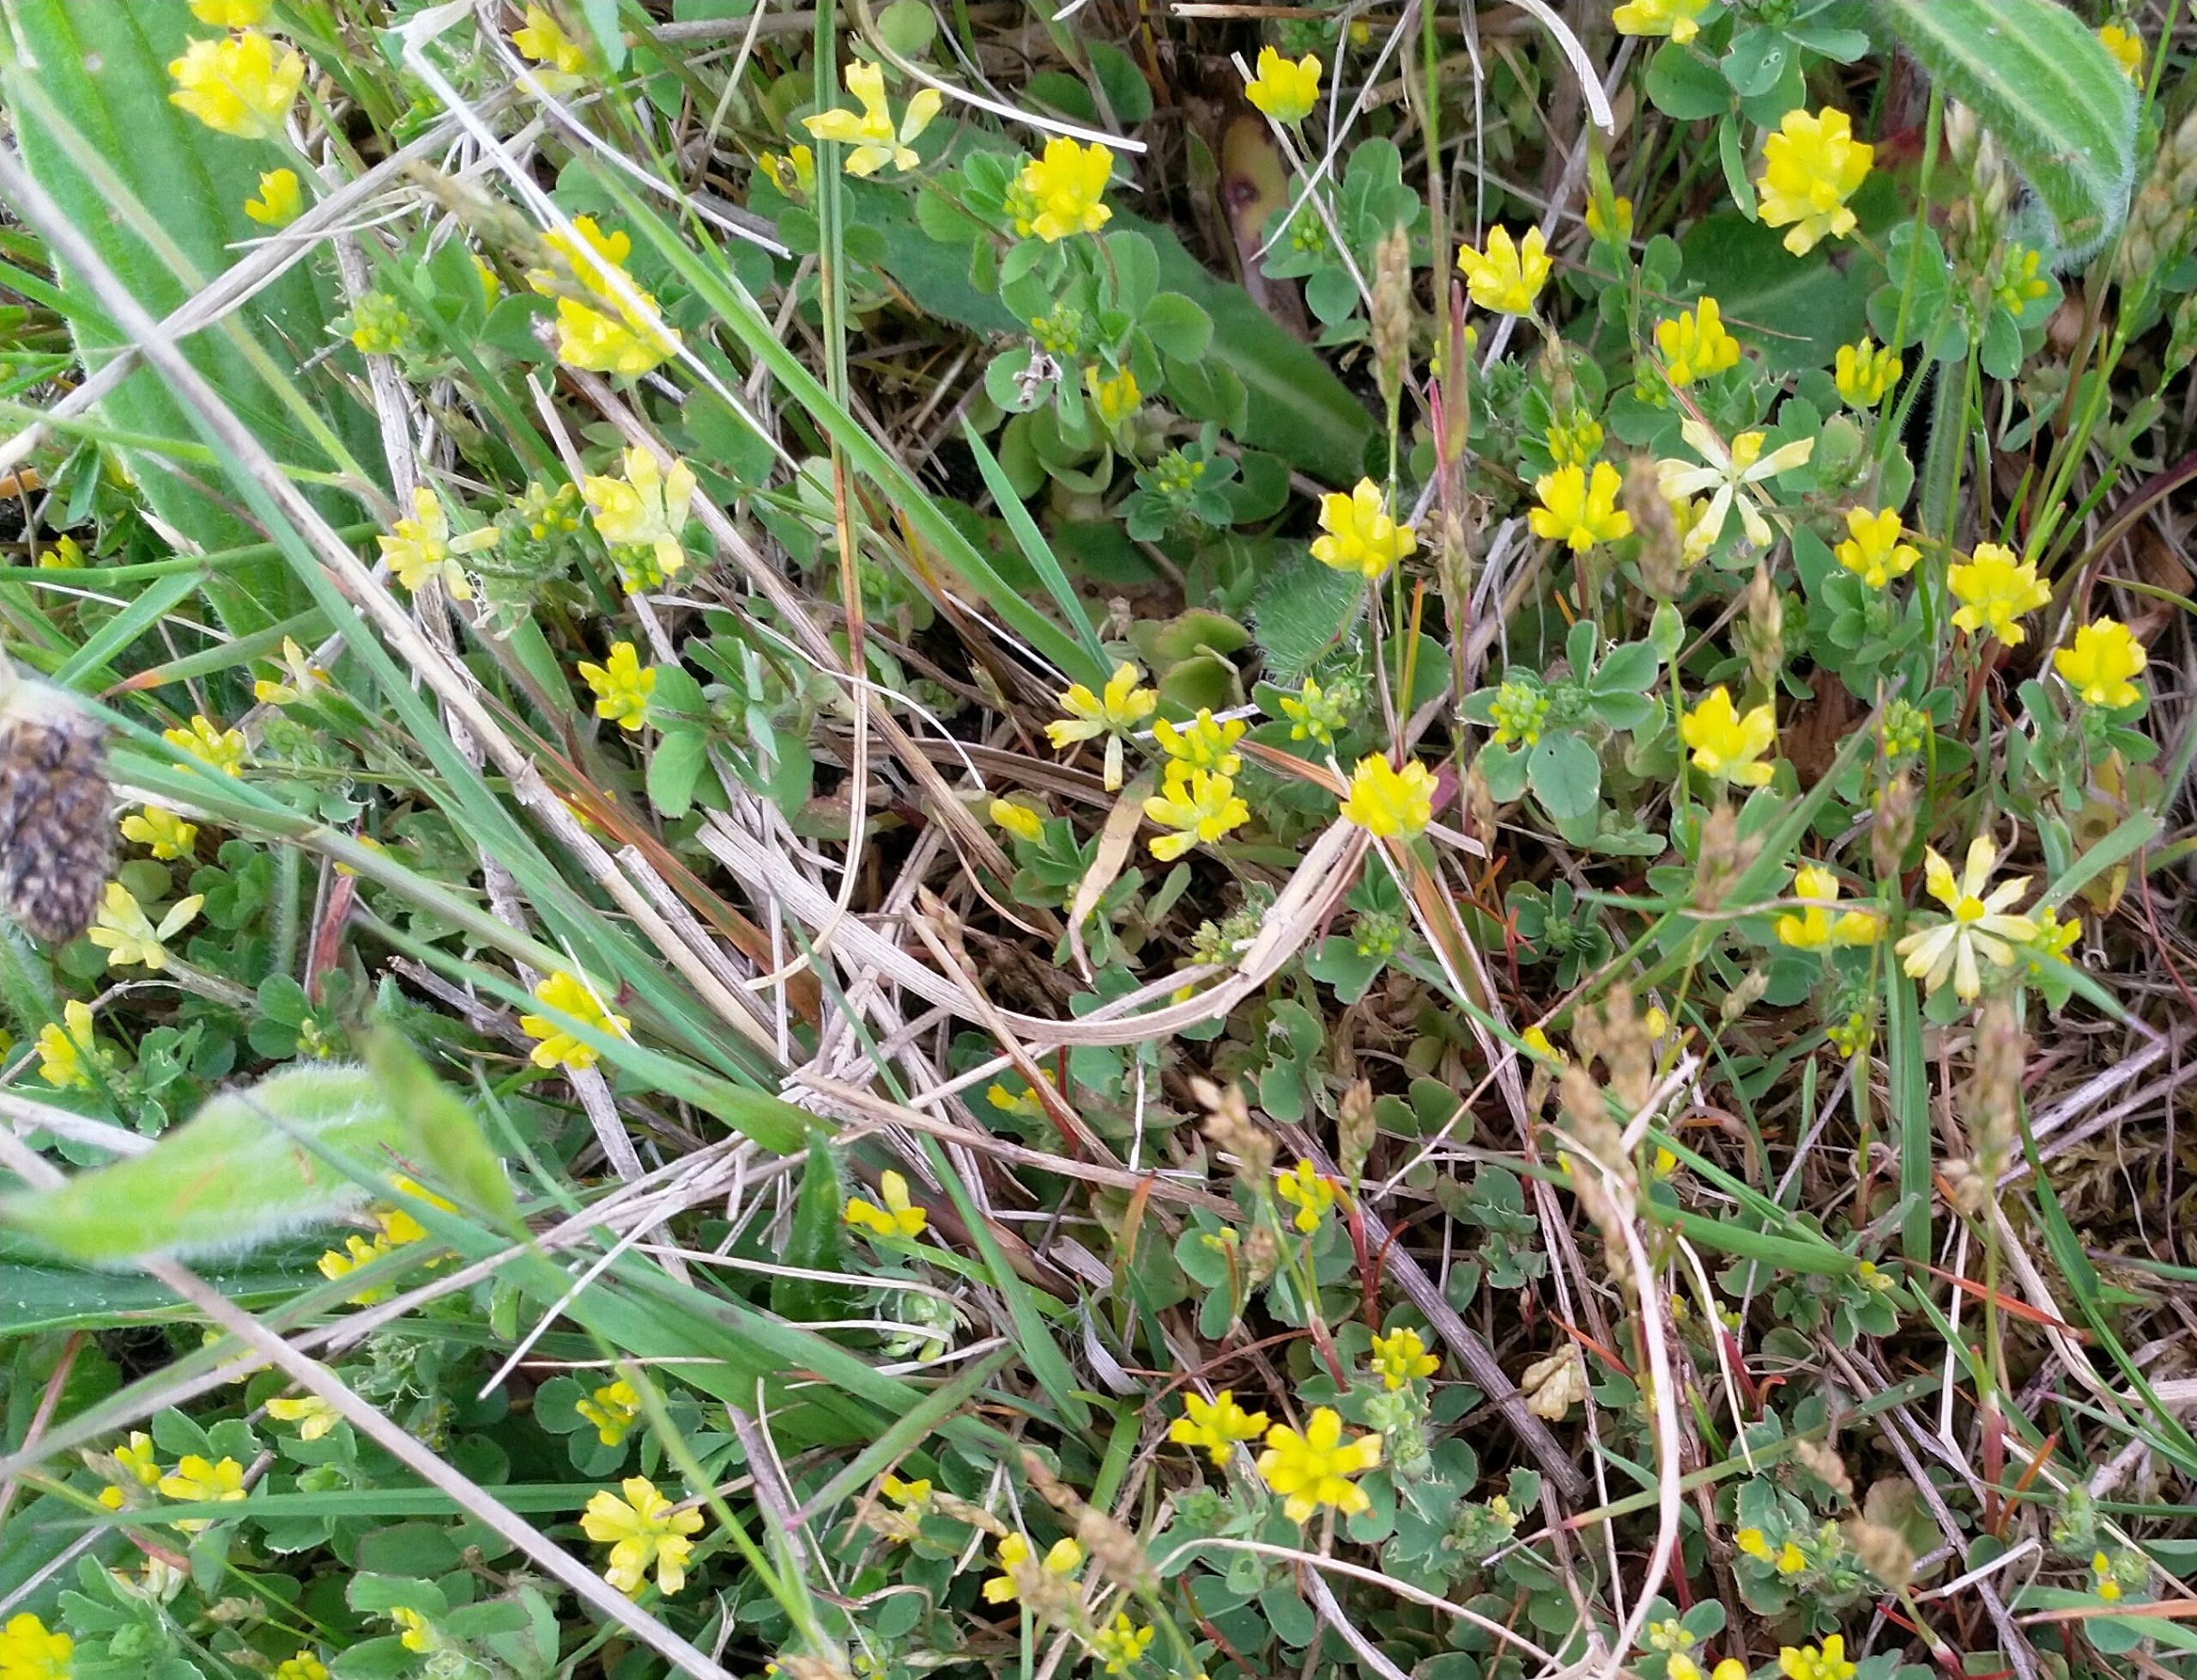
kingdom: Plantae
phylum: Tracheophyta
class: Magnoliopsida
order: Fabales
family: Fabaceae
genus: Trifolium
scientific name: Trifolium dubium
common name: Fin kløver
